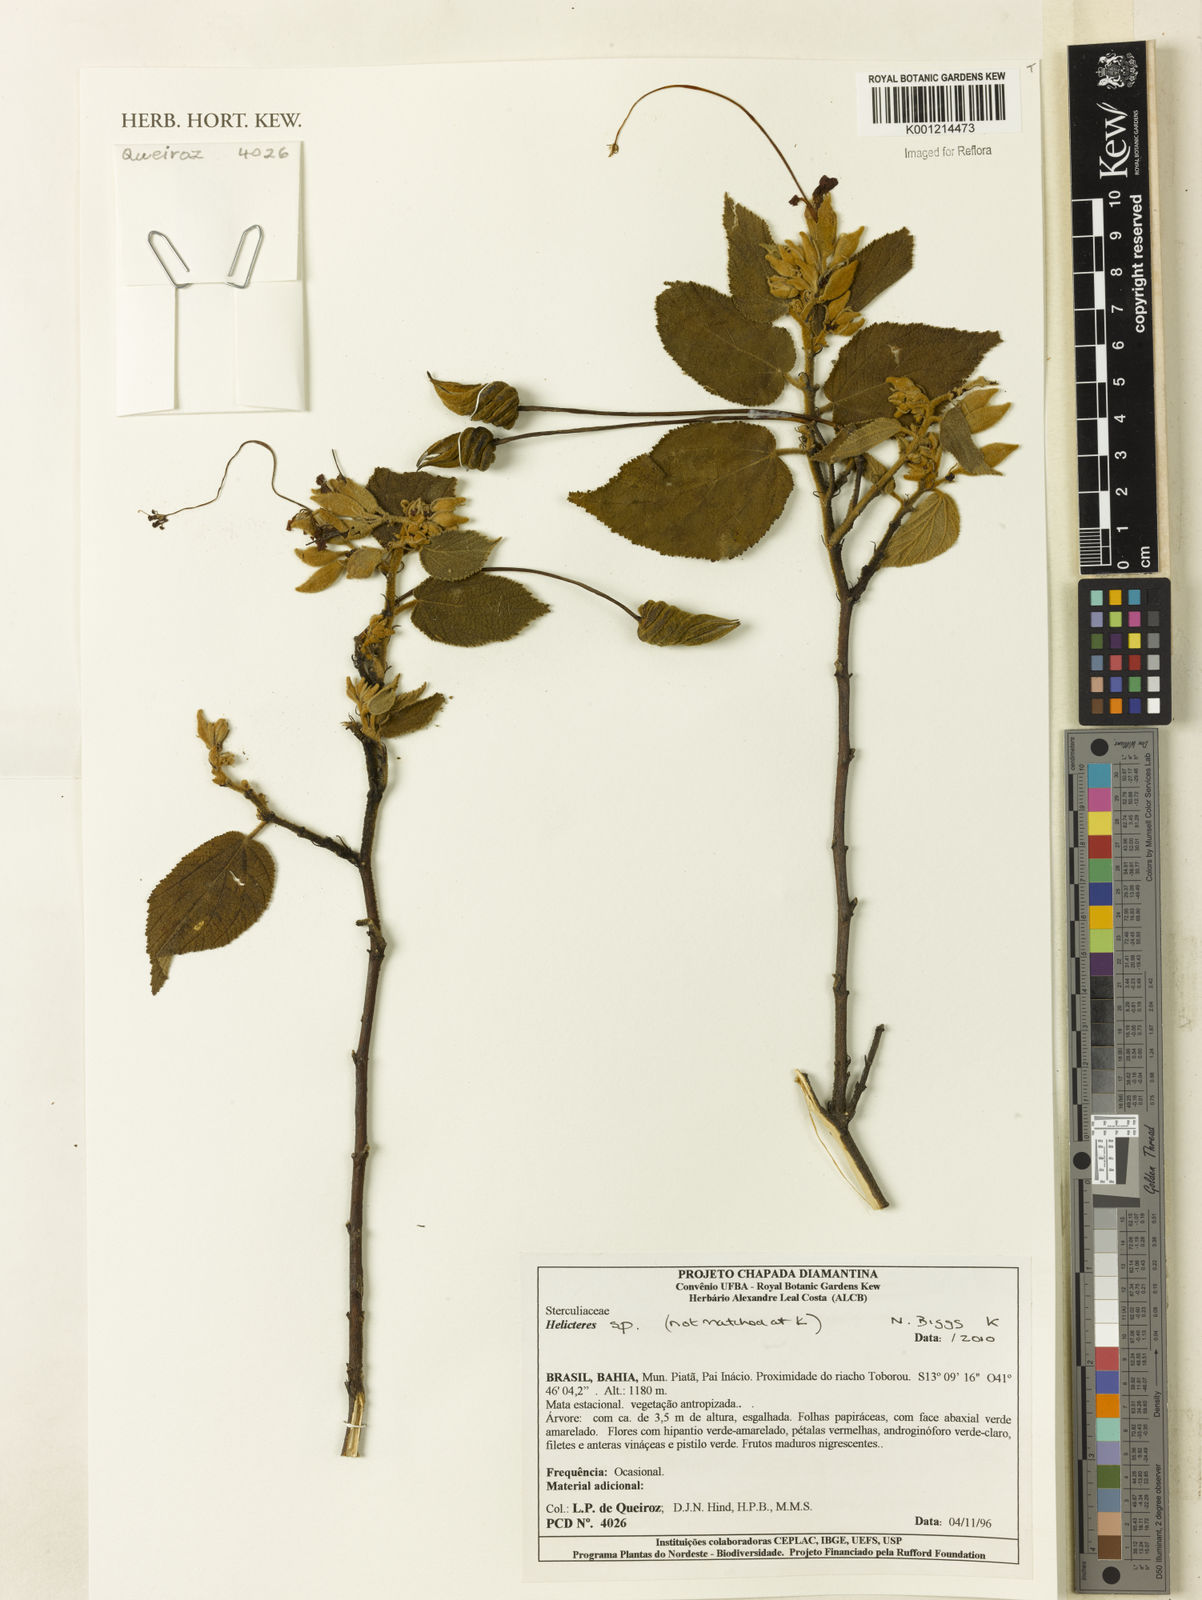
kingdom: Plantae
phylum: Tracheophyta
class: Magnoliopsida
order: Malvales
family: Malvaceae
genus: Helicteres
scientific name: Helicteres
